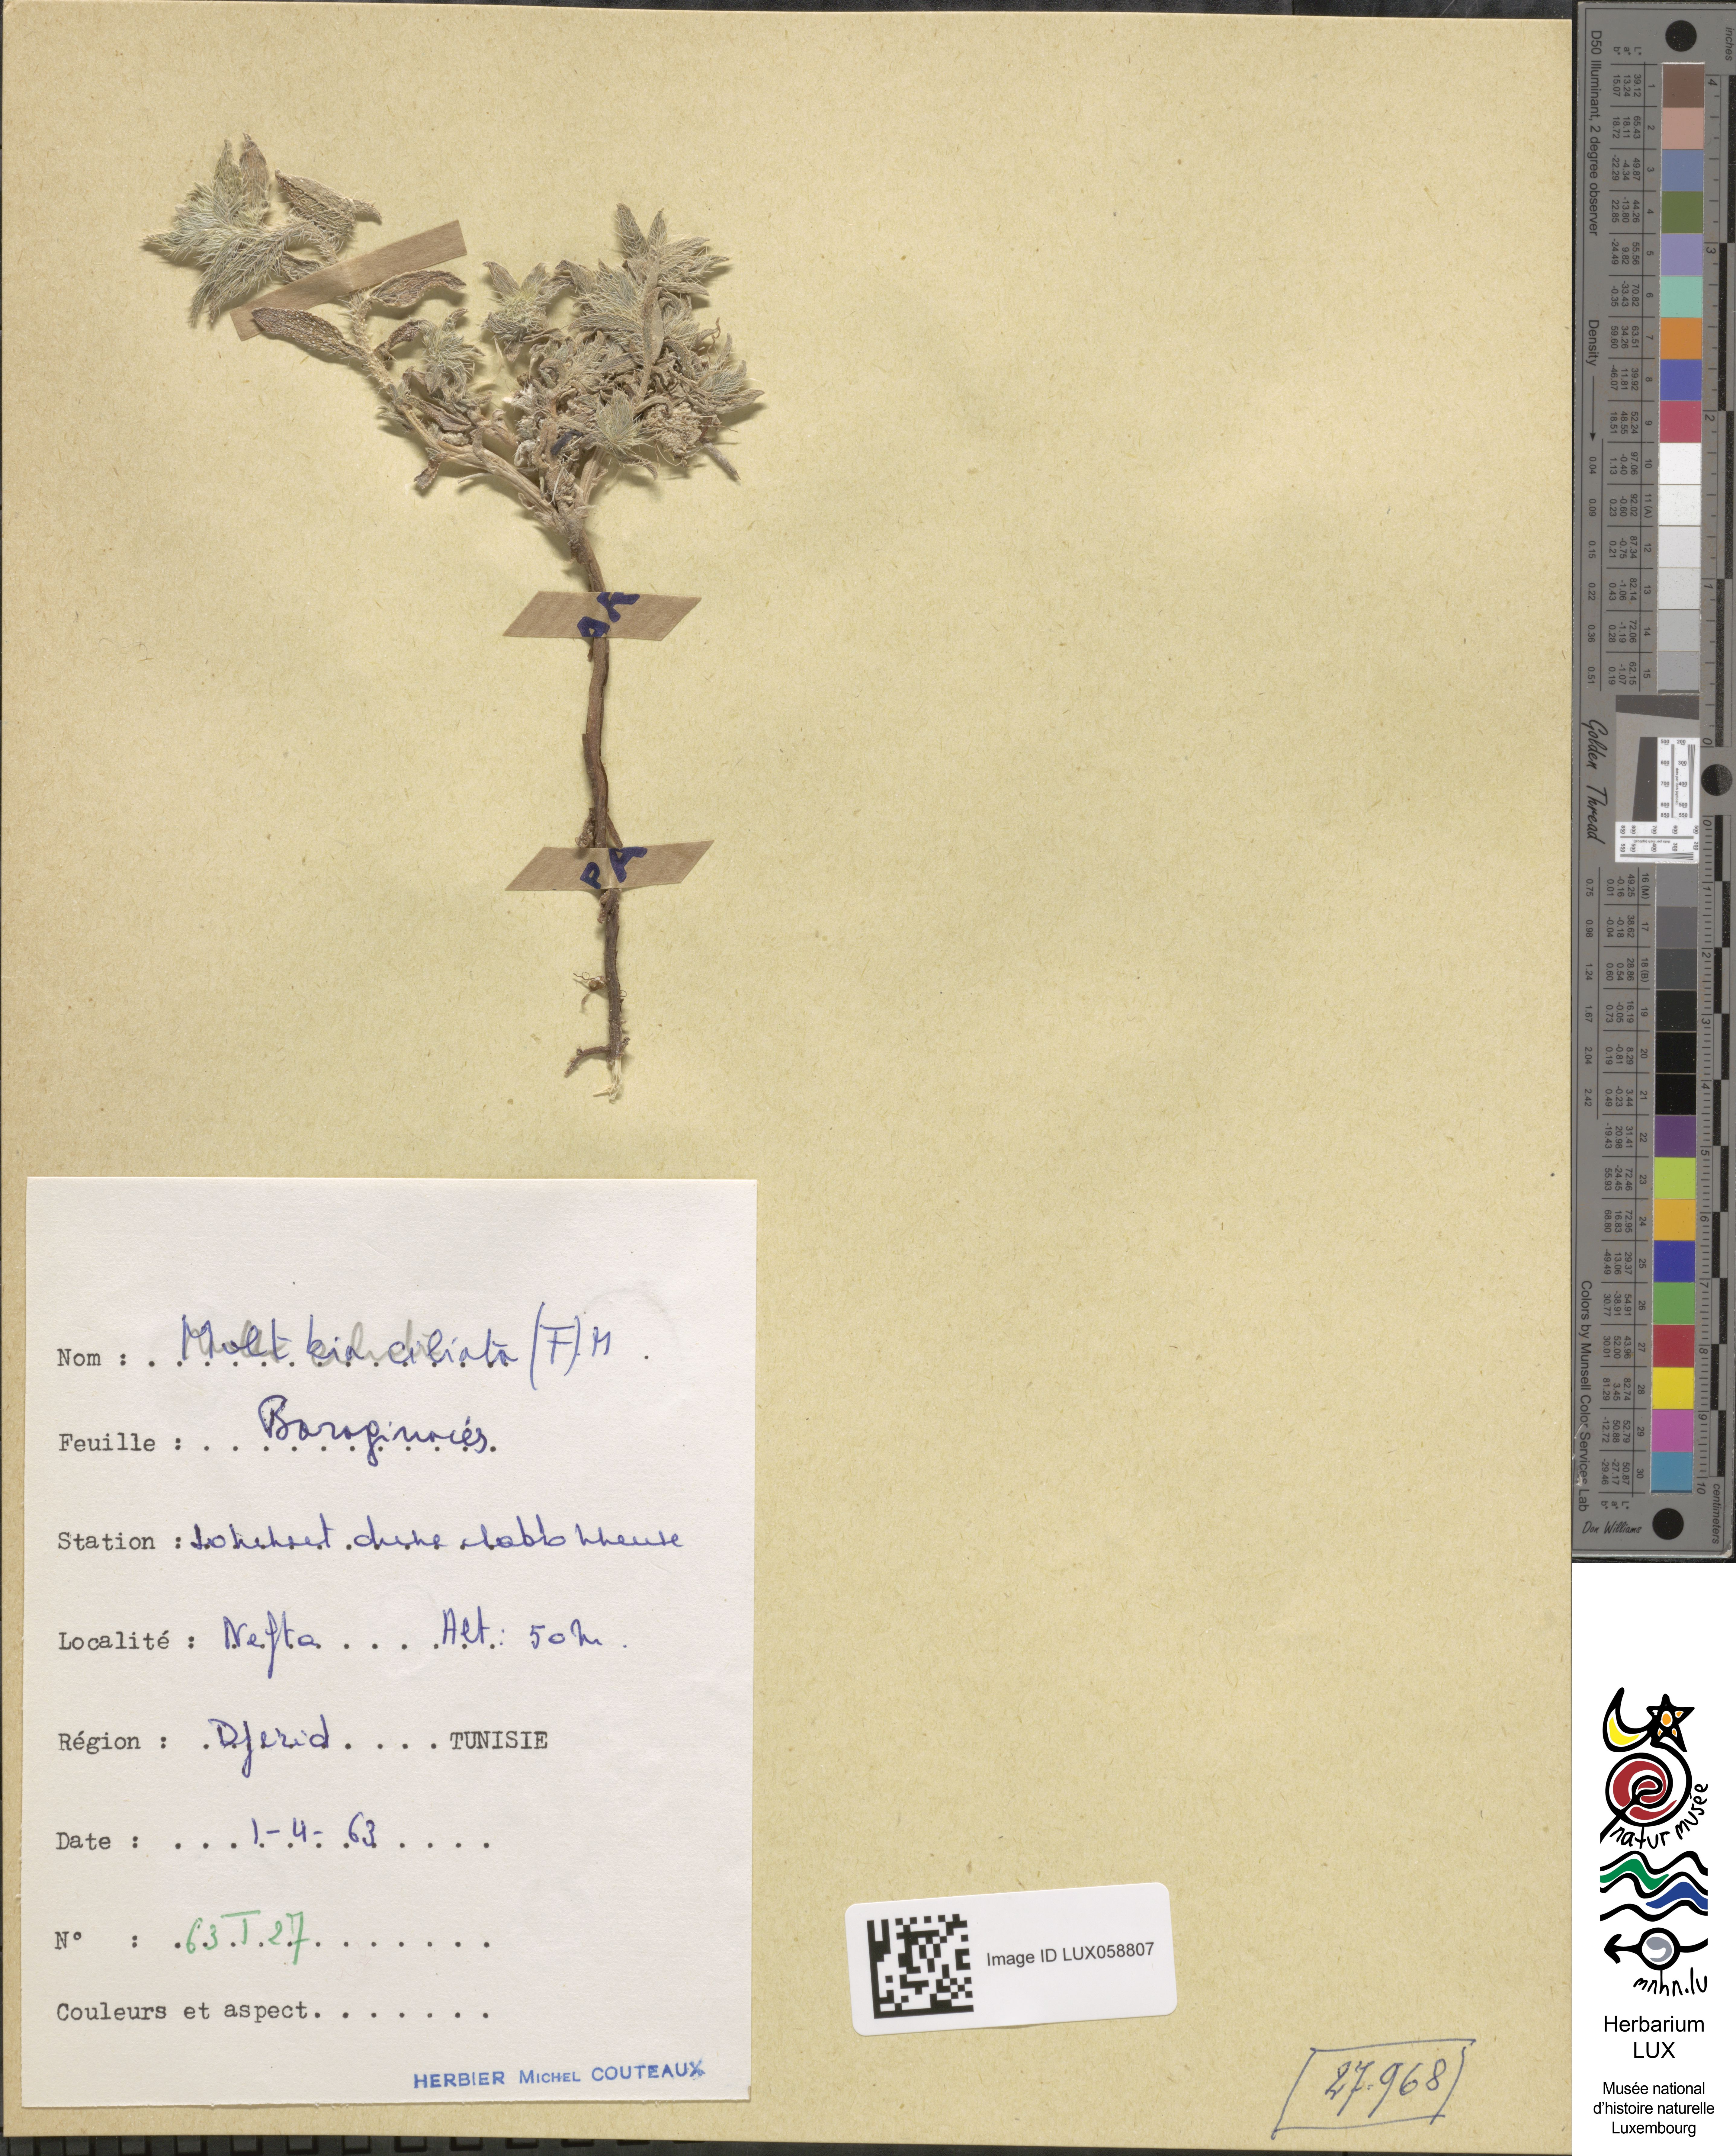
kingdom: Plantae
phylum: Tracheophyta
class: Magnoliopsida
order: Boraginales
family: Boraginaceae
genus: Moltkiopsis
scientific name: Moltkiopsis ciliata
